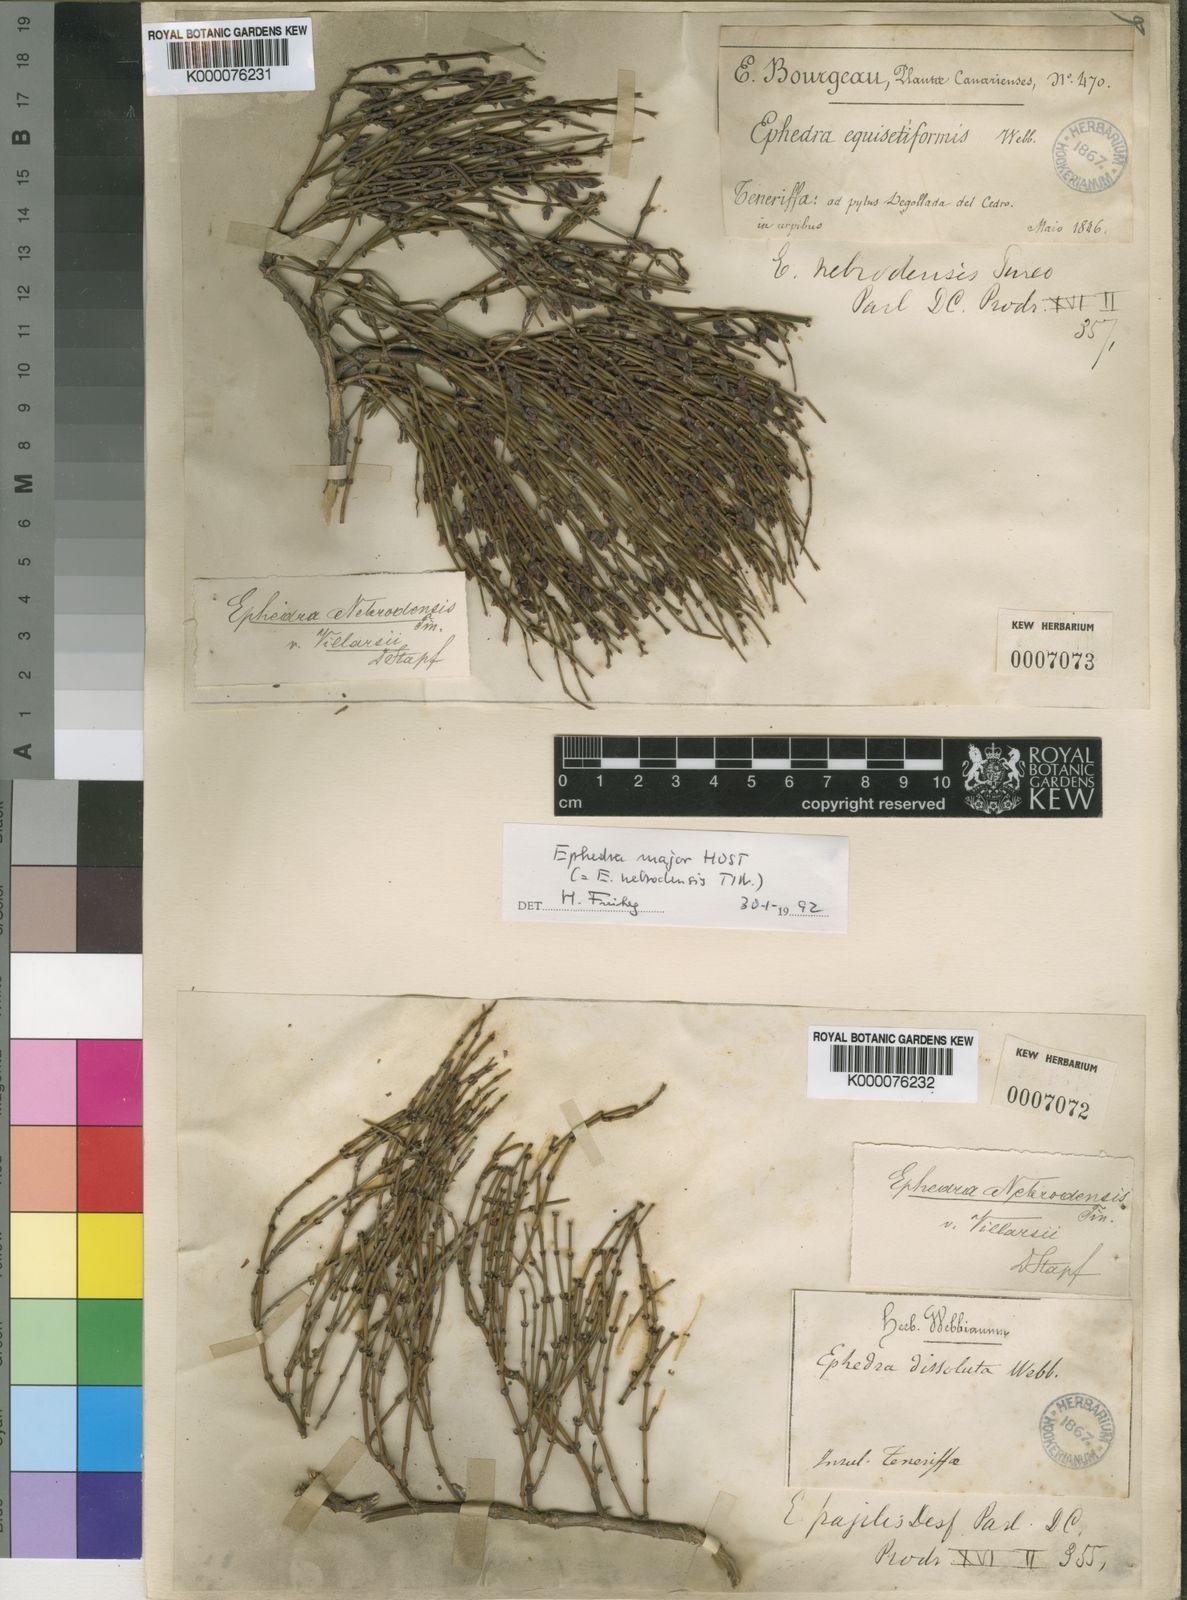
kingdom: Plantae
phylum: Tracheophyta
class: Gnetopsida
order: Ephedrales
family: Ephedraceae
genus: Ephedra
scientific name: Ephedra nebrodensis
